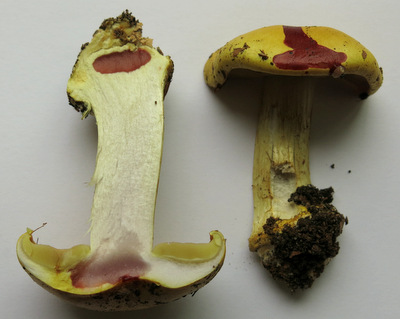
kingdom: Fungi
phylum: Basidiomycota
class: Agaricomycetes
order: Agaricales
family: Cortinariaceae
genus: Cortinarius
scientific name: Cortinarius bergeronii
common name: prægtig slørhat
